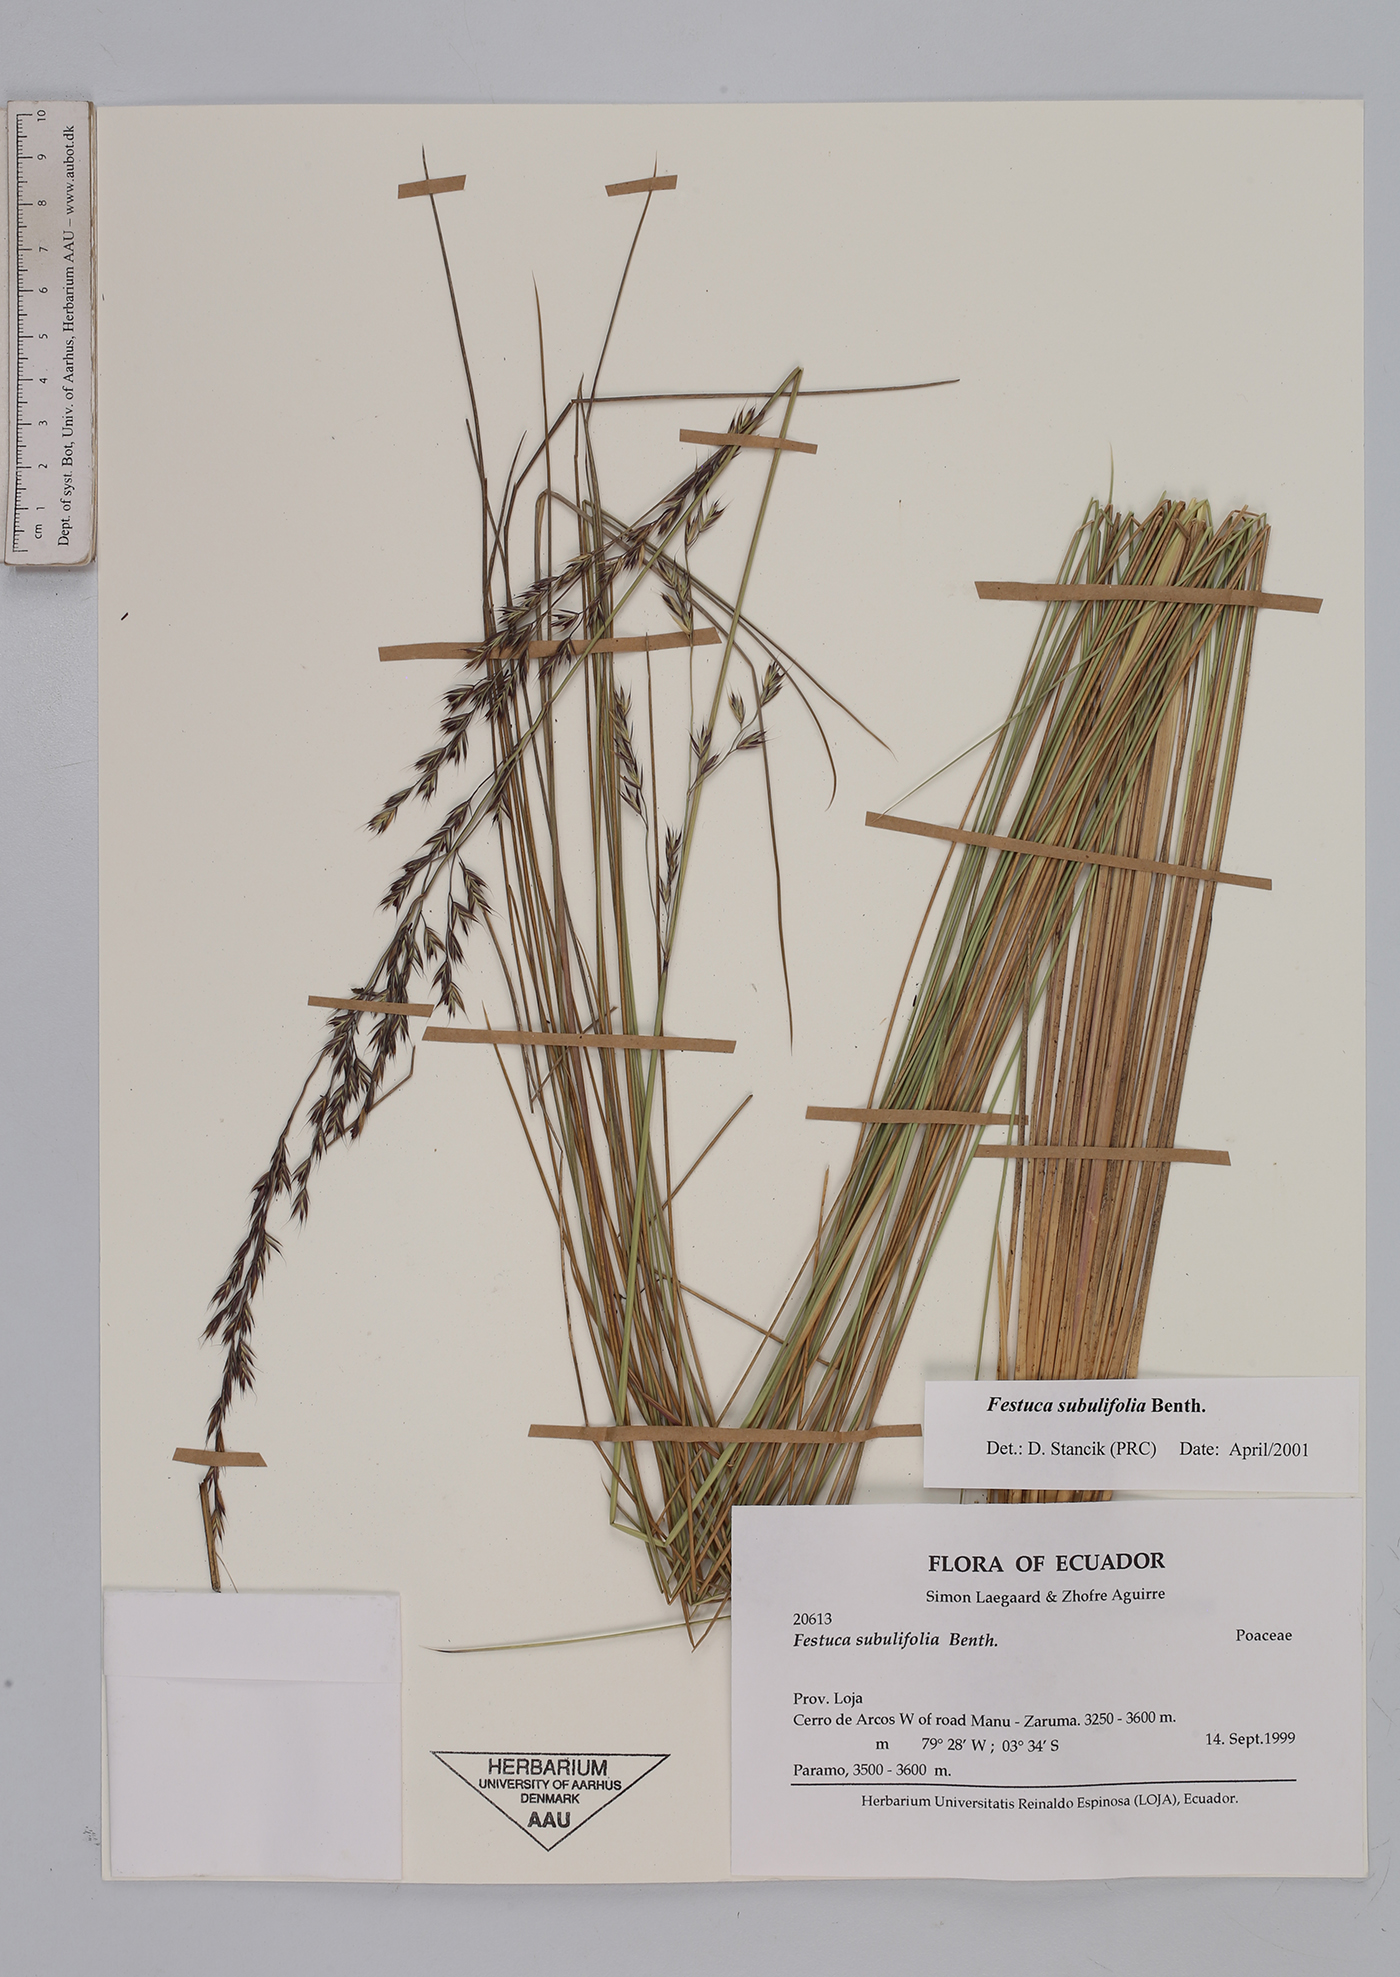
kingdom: Plantae
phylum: Tracheophyta
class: Liliopsida
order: Poales
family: Poaceae
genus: Festuca
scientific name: Festuca subulifolia
